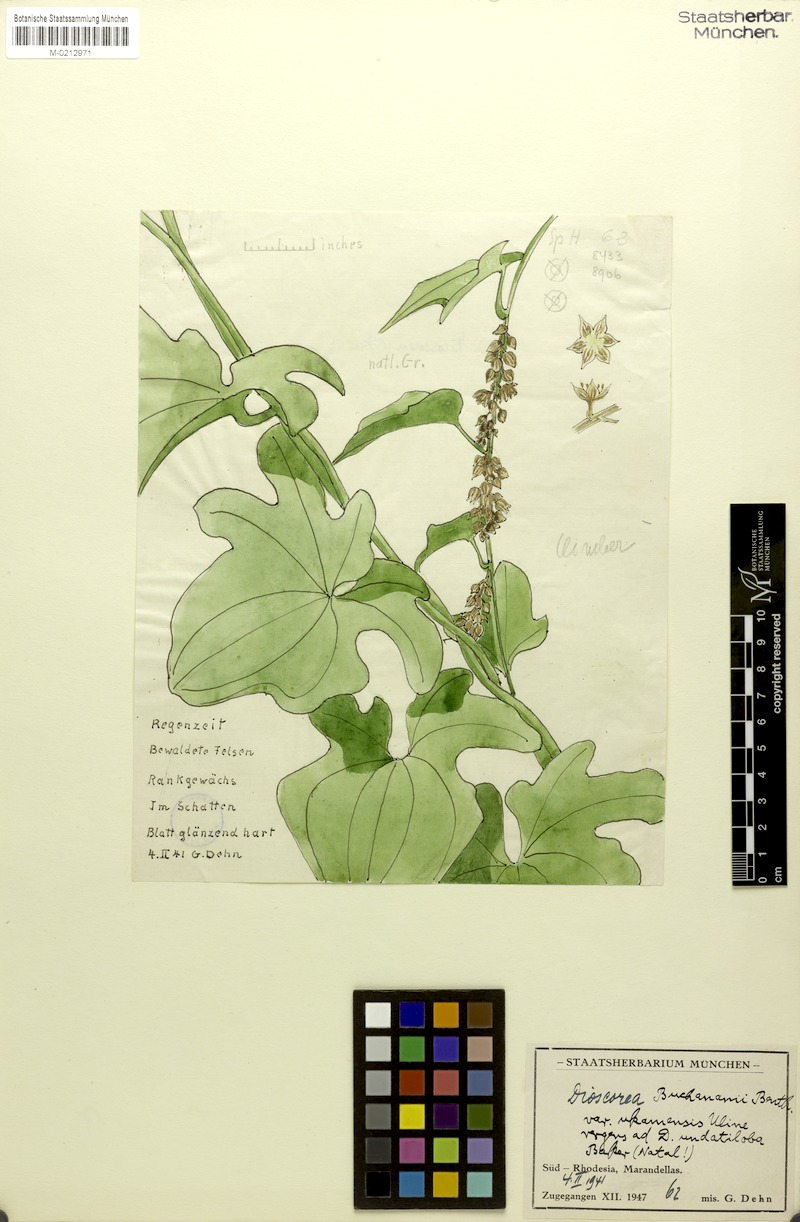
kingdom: Plantae
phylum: Tracheophyta
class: Liliopsida
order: Dioscoreales
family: Dioscoreaceae
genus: Dioscorea
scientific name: Dioscorea buchananii
